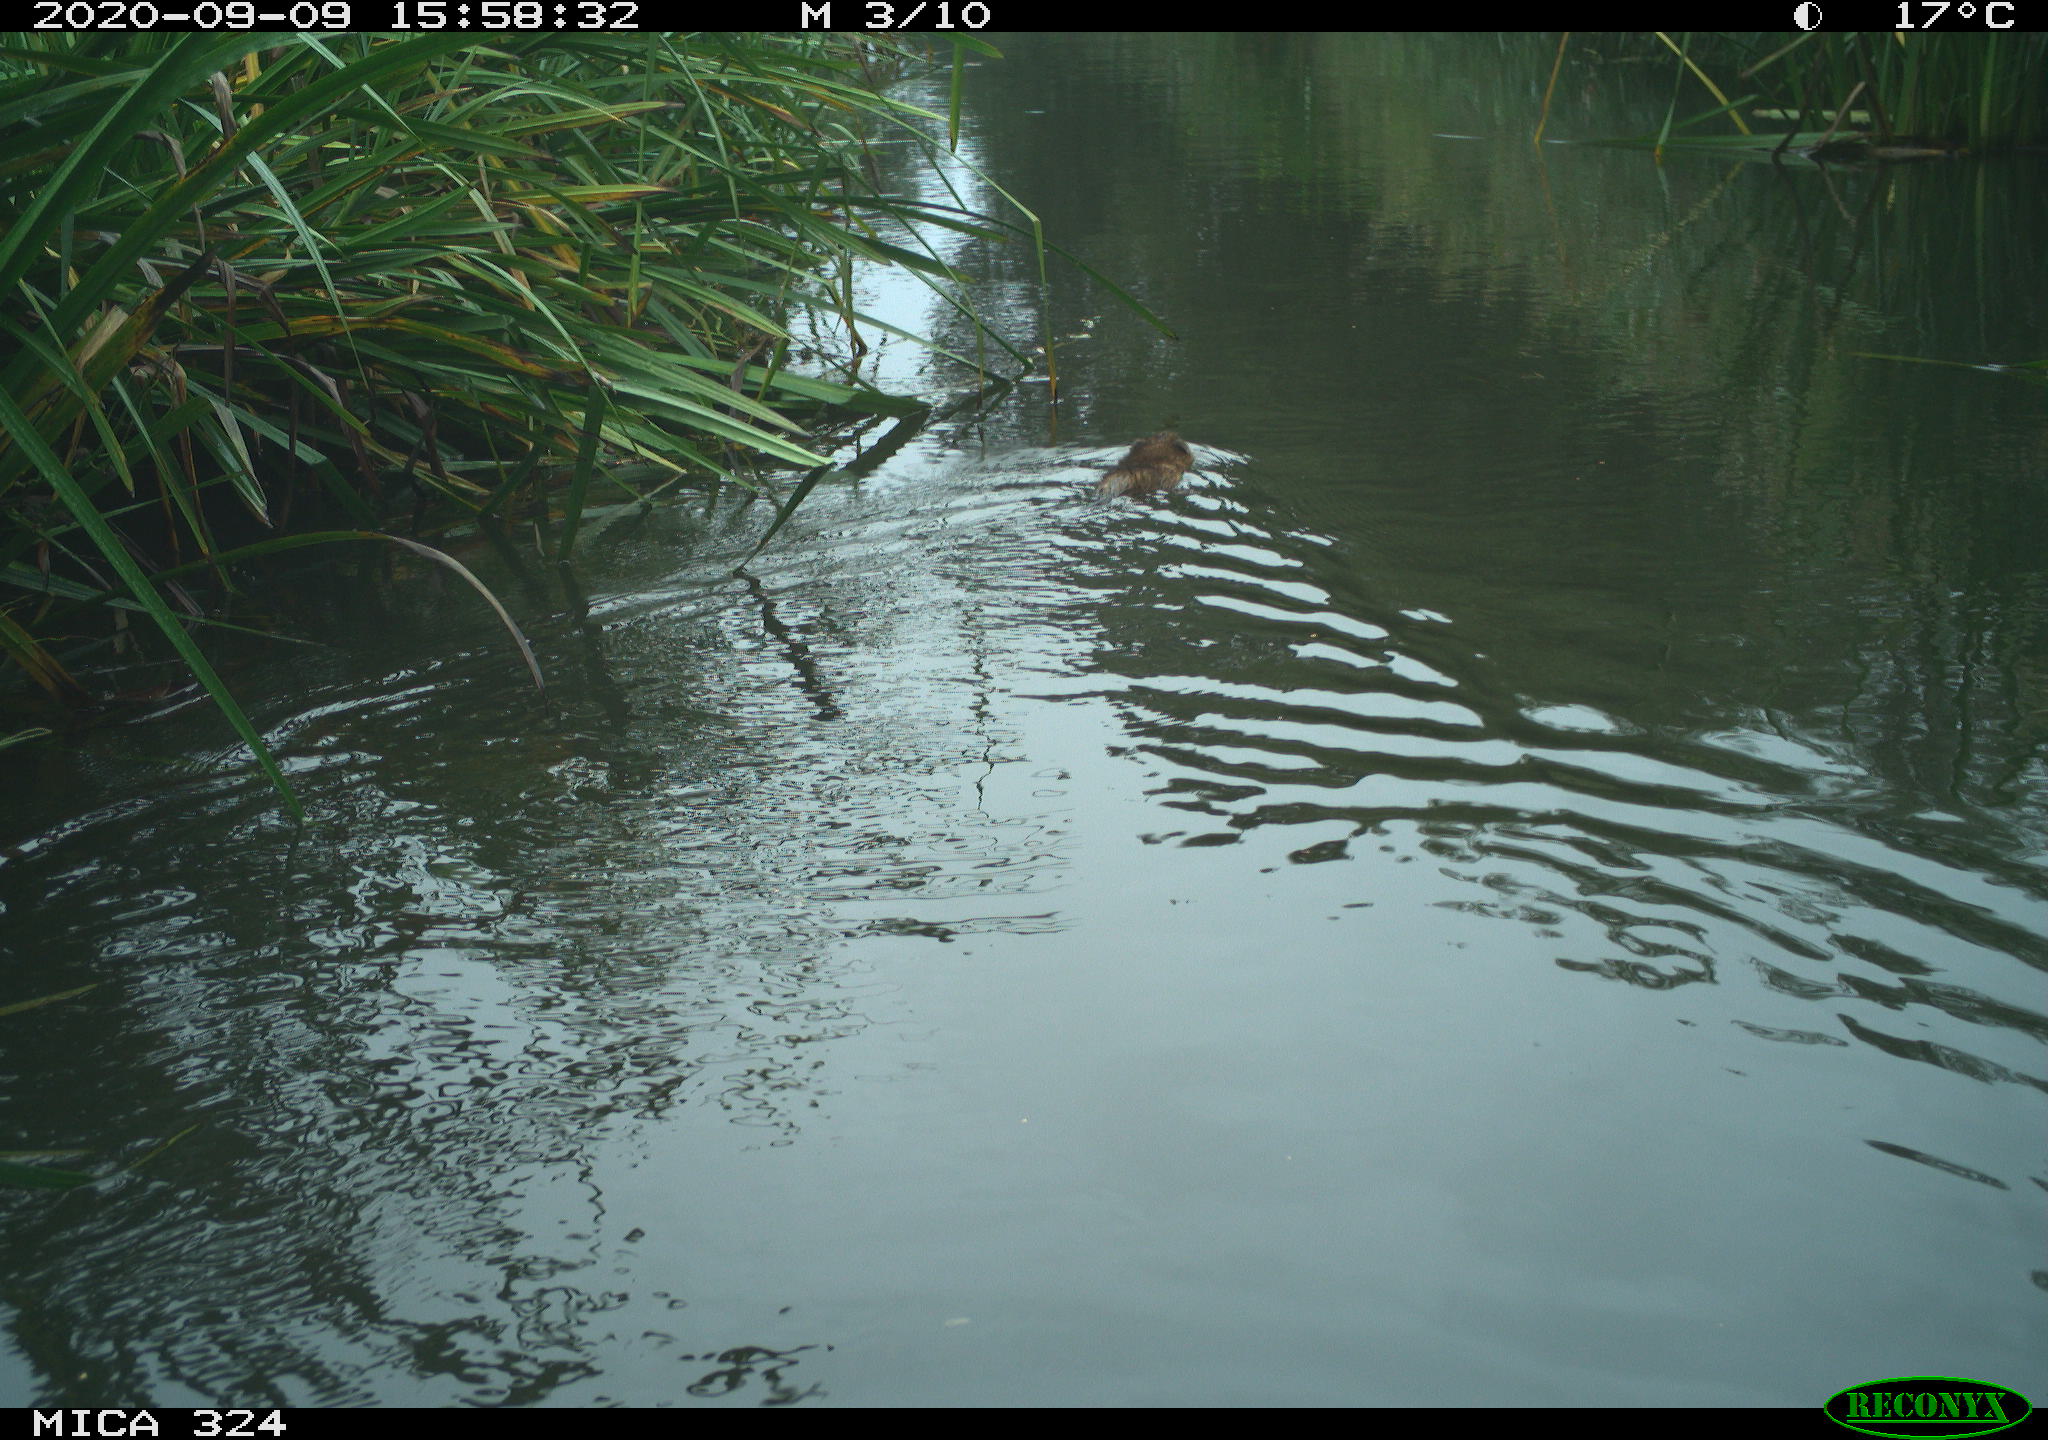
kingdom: Animalia
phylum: Chordata
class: Mammalia
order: Rodentia
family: Cricetidae
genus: Ondatra
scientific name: Ondatra zibethicus
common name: Muskrat
